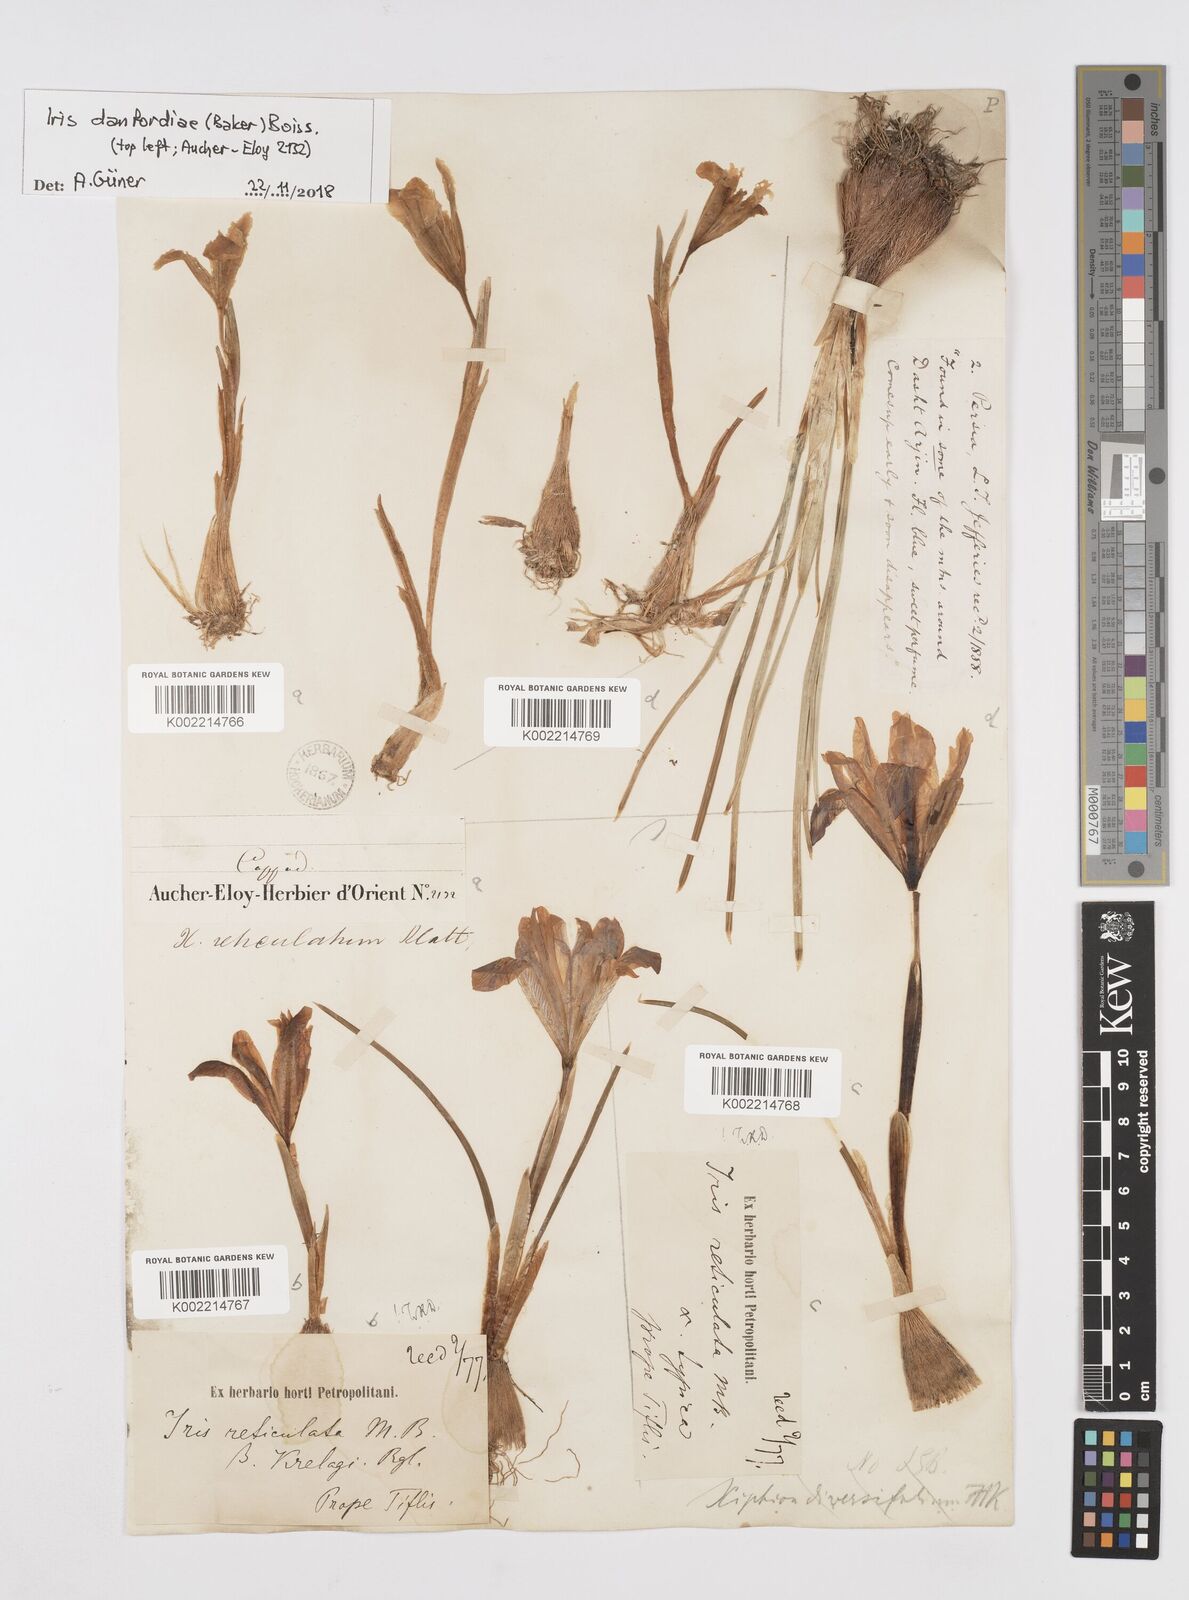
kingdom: Plantae
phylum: Tracheophyta
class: Liliopsida
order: Asparagales
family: Iridaceae
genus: Iris
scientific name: Iris reticulata
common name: Netted iris
